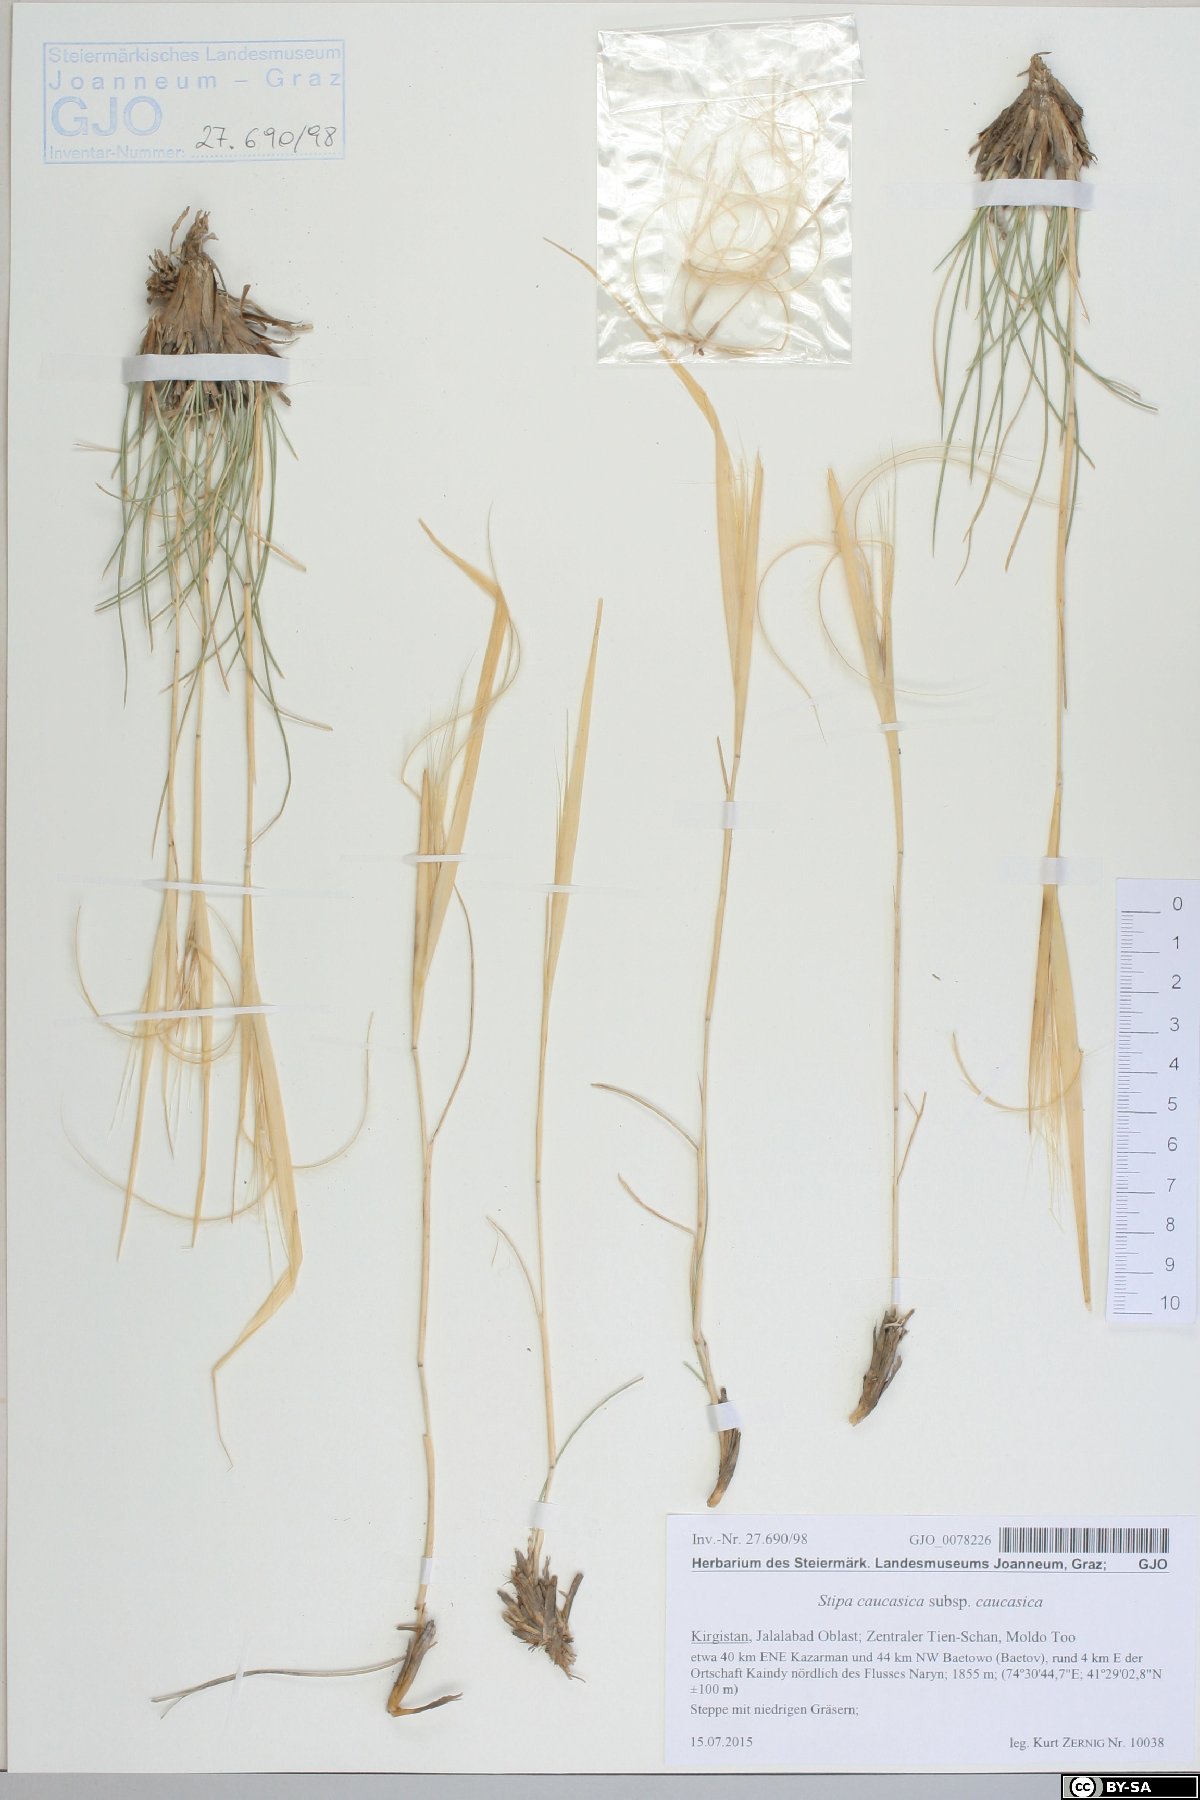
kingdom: Plantae
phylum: Tracheophyta
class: Liliopsida
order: Poales
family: Poaceae
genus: Stipa
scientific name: Stipa caucasica
